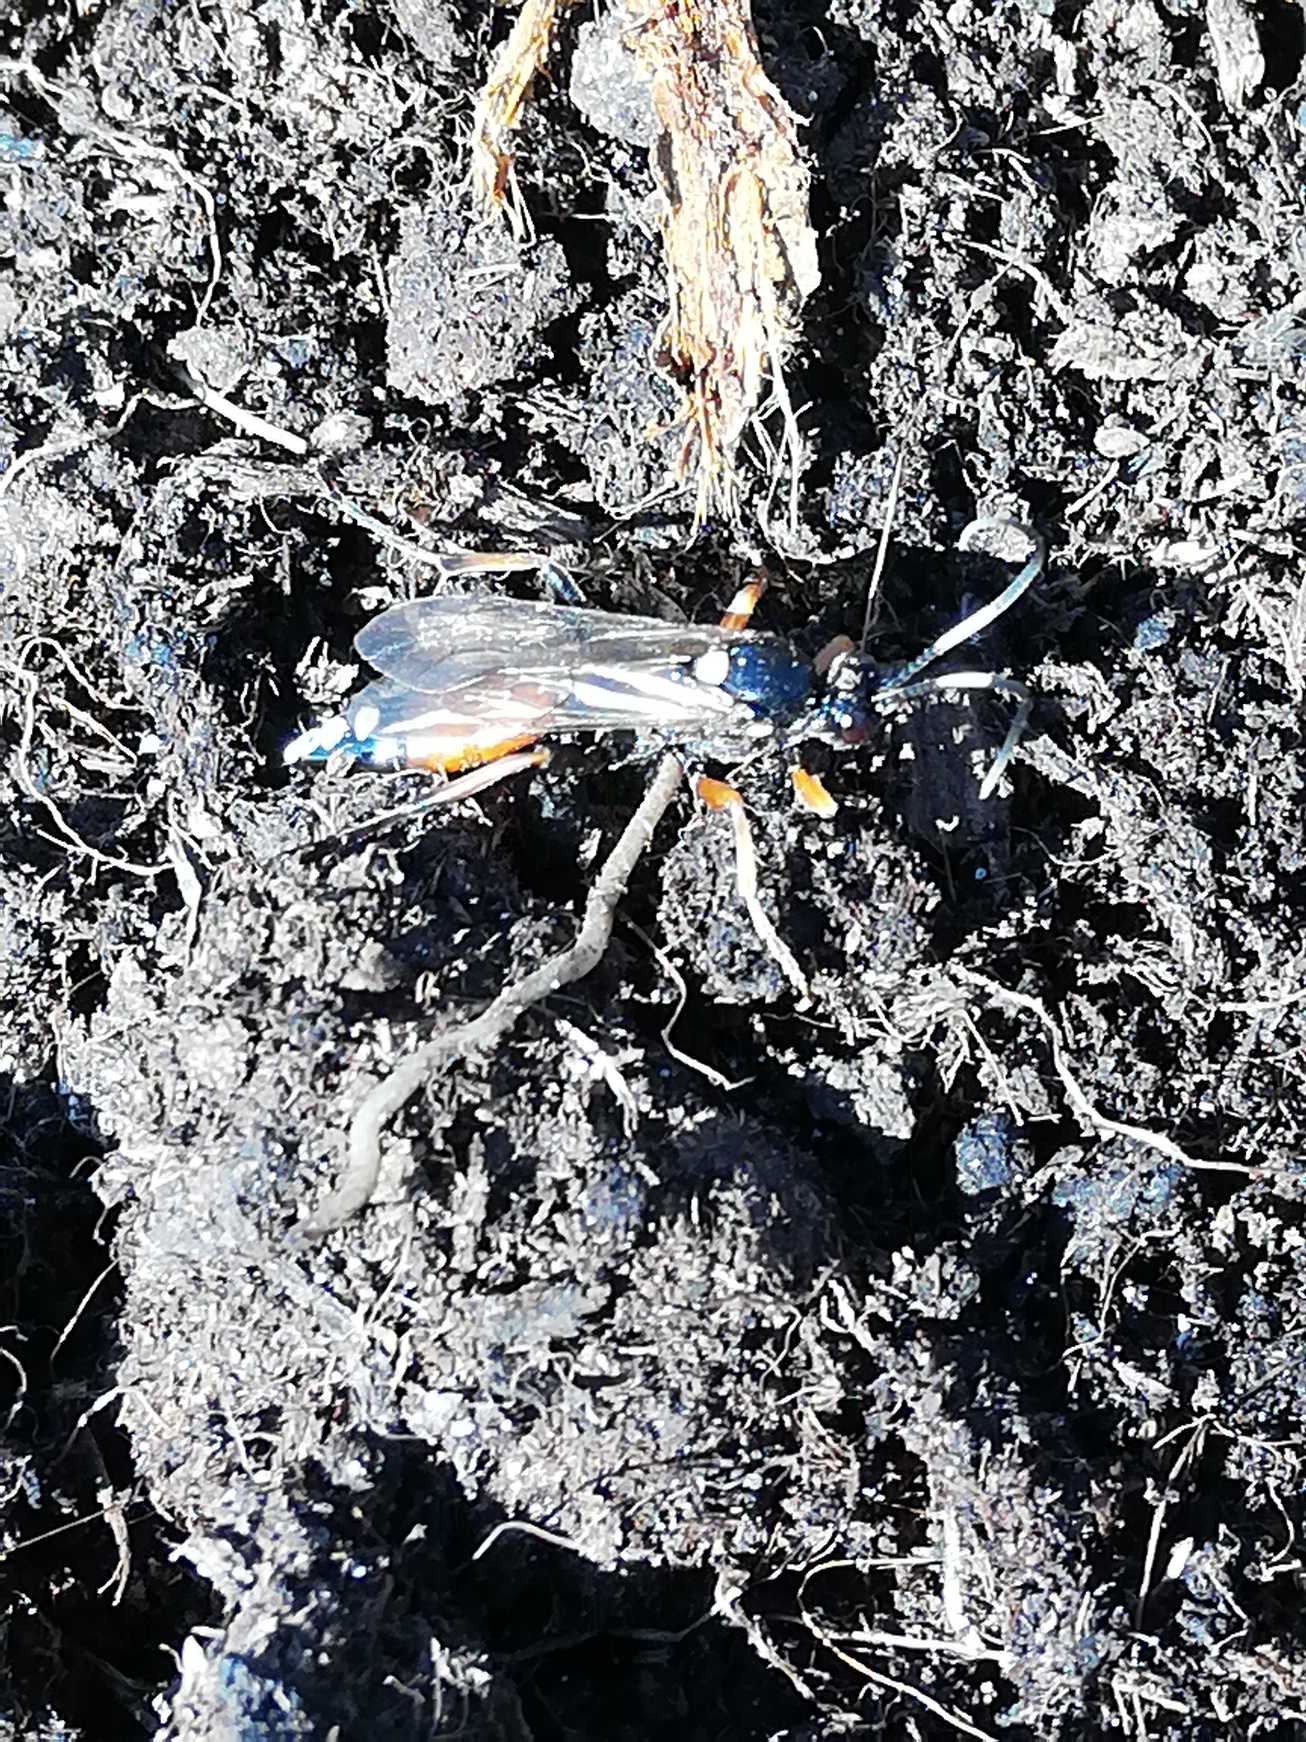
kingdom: Animalia
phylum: Arthropoda
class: Insecta
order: Hymenoptera
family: Ichneumonidae
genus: Diphyus
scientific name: Diphyus raptorius
